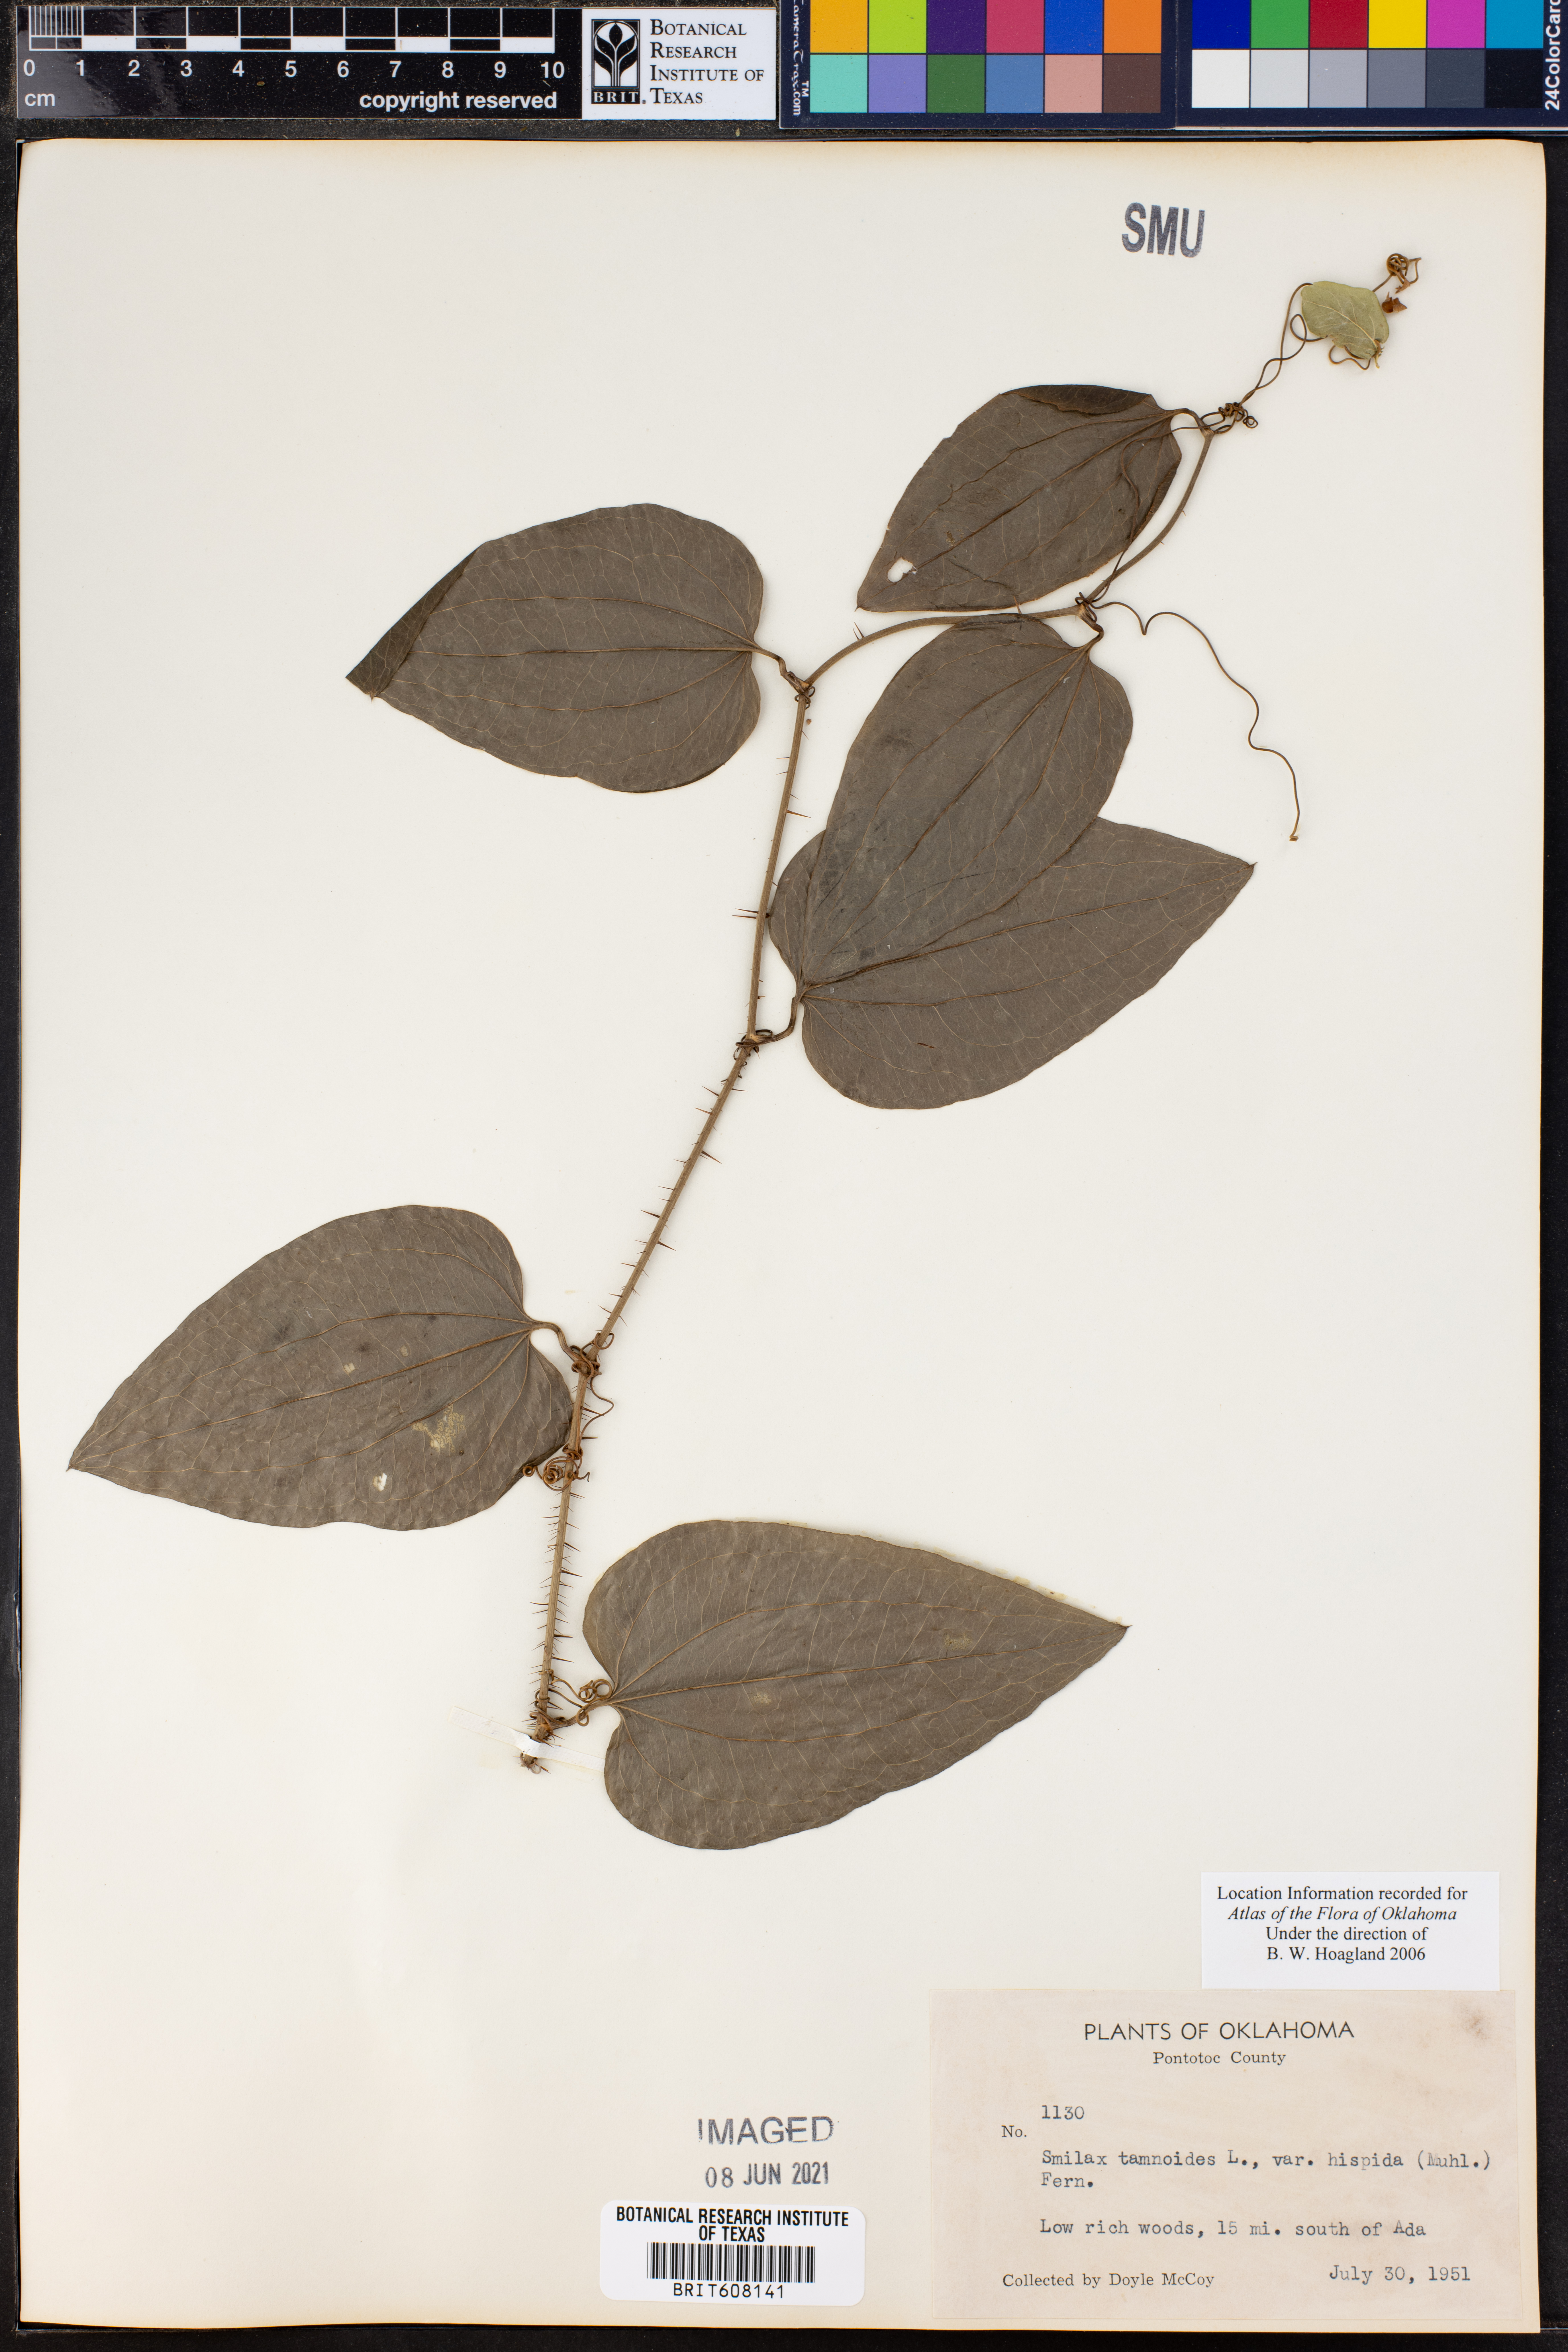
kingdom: Plantae
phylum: Tracheophyta
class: Liliopsida
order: Liliales
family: Smilacaceae
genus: Smilax
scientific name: Smilax tamnoides
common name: Hellfetter
